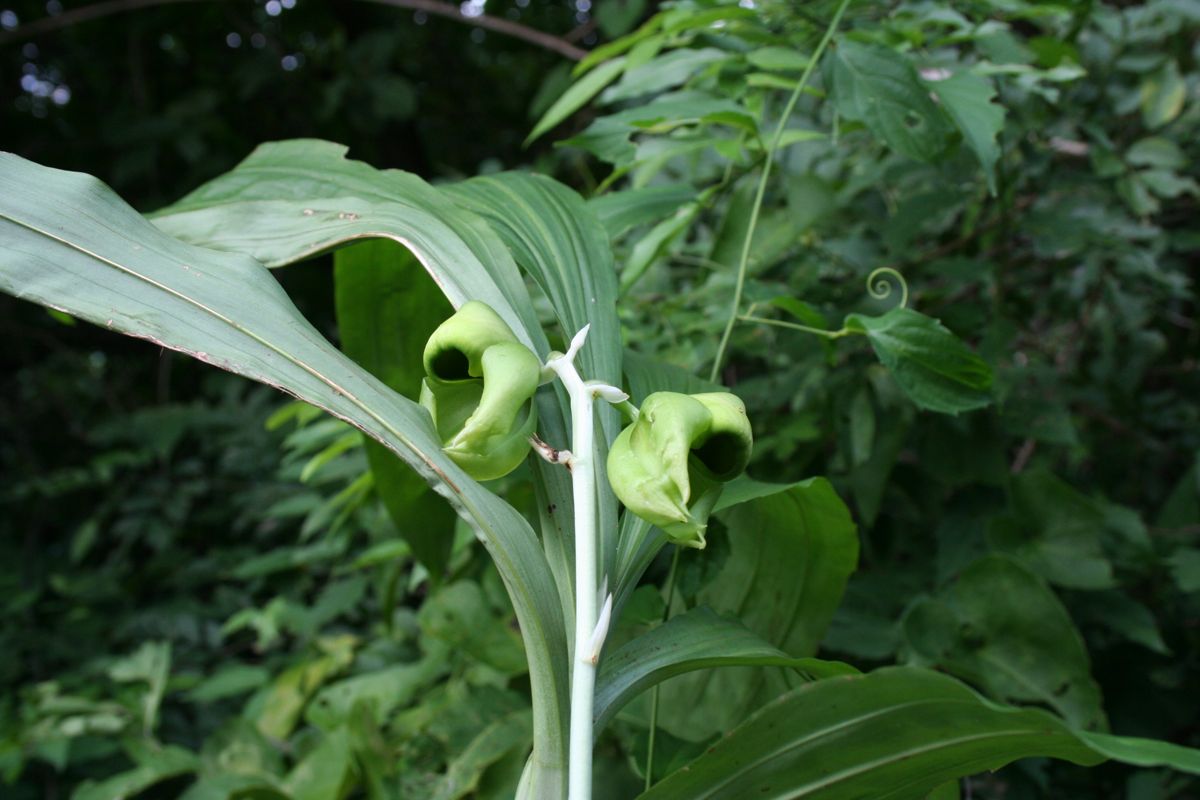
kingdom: Plantae
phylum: Tracheophyta
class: Liliopsida
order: Asparagales
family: Orchidaceae
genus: Catasetum
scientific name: Catasetum integerrimum
